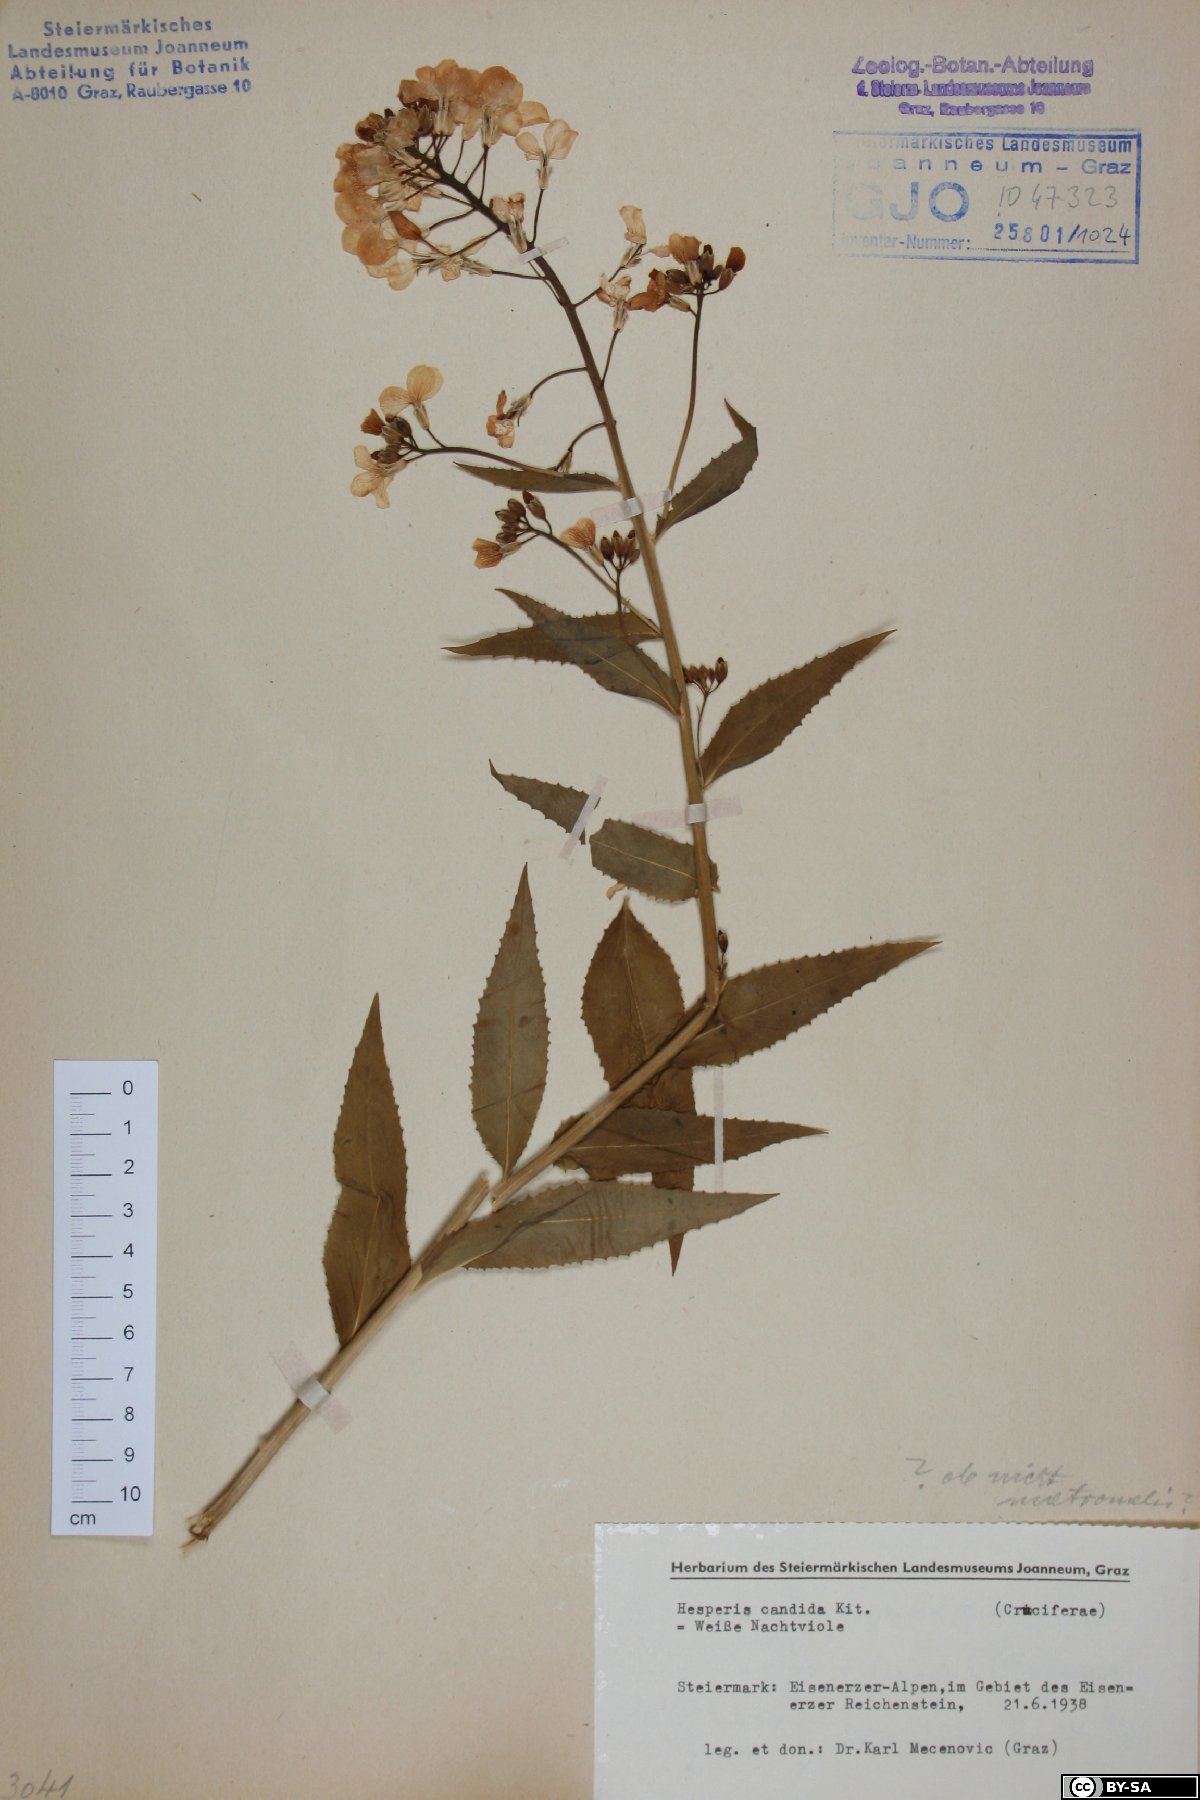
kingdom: Plantae
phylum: Tracheophyta
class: Magnoliopsida
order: Brassicales
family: Brassicaceae
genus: Hesperis
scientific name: Hesperis matronalis
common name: Dame's-violet
